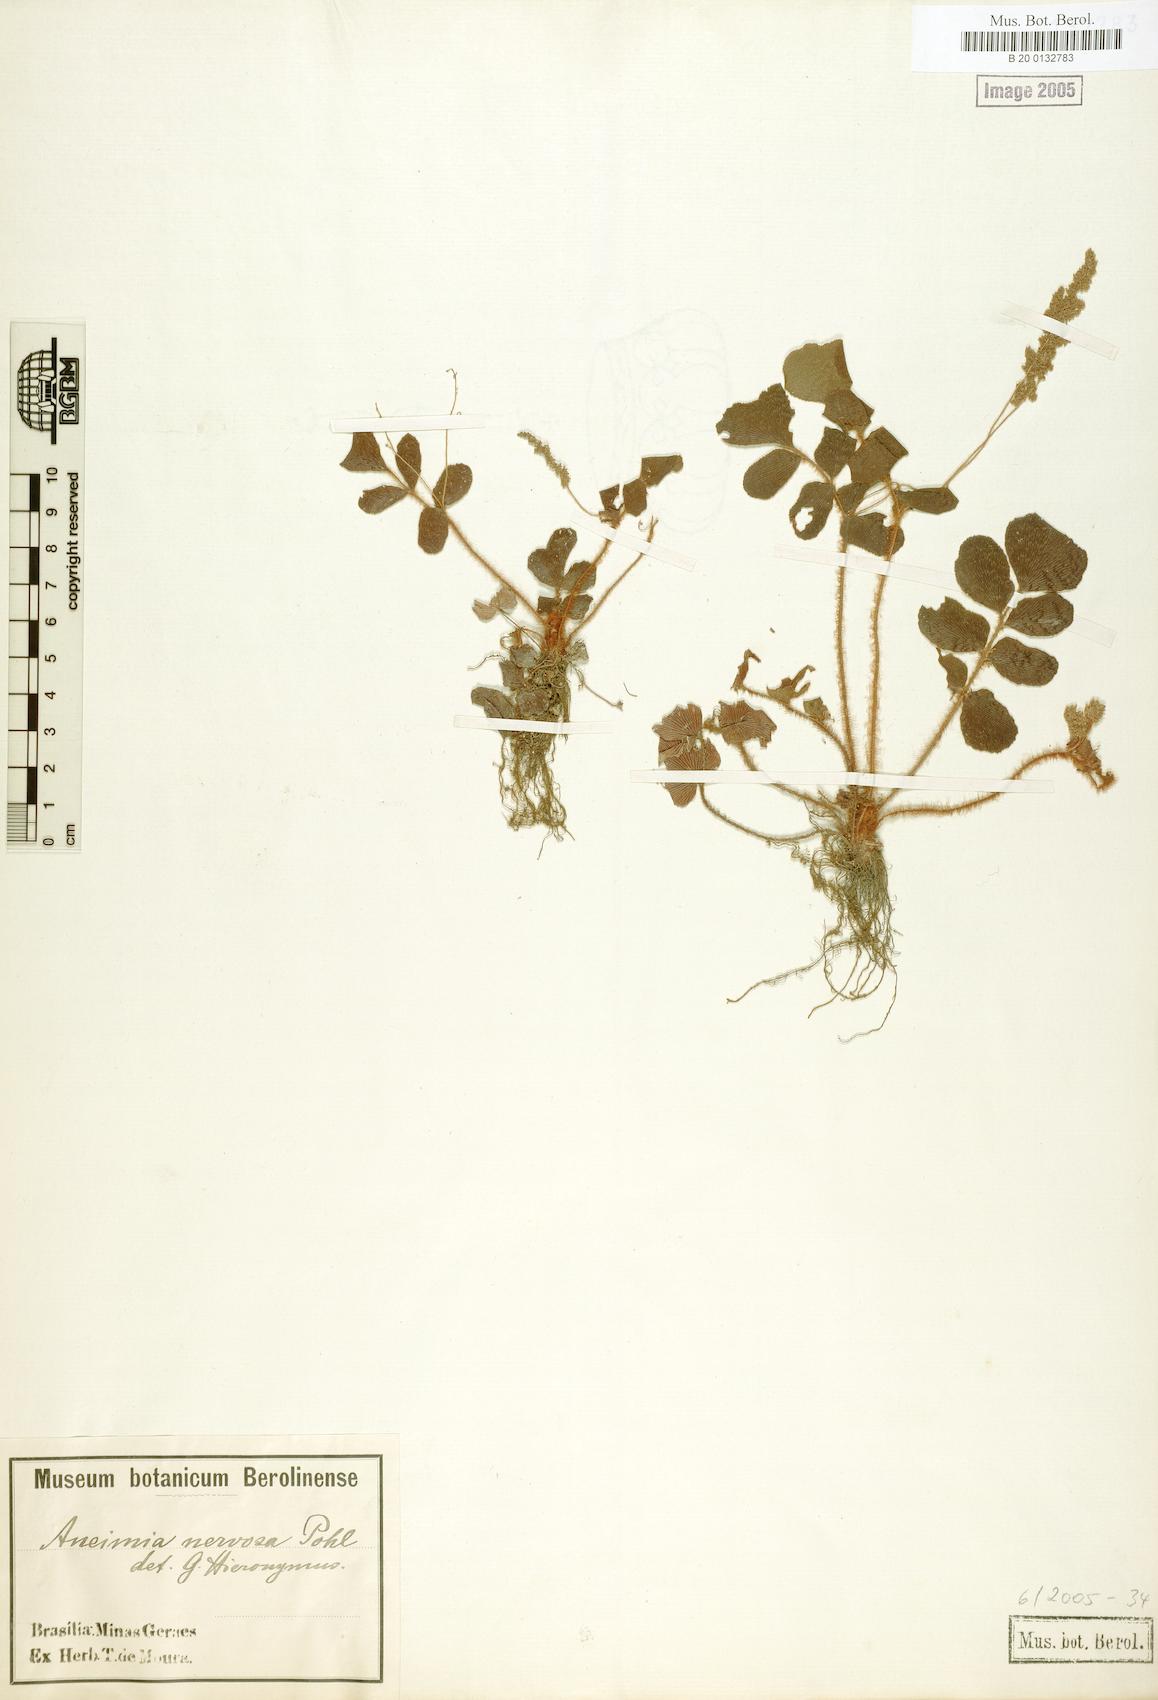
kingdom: Plantae
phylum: Tracheophyta
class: Polypodiopsida
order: Schizaeales
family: Anemiaceae
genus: Anemia
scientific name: Anemia nervosa
